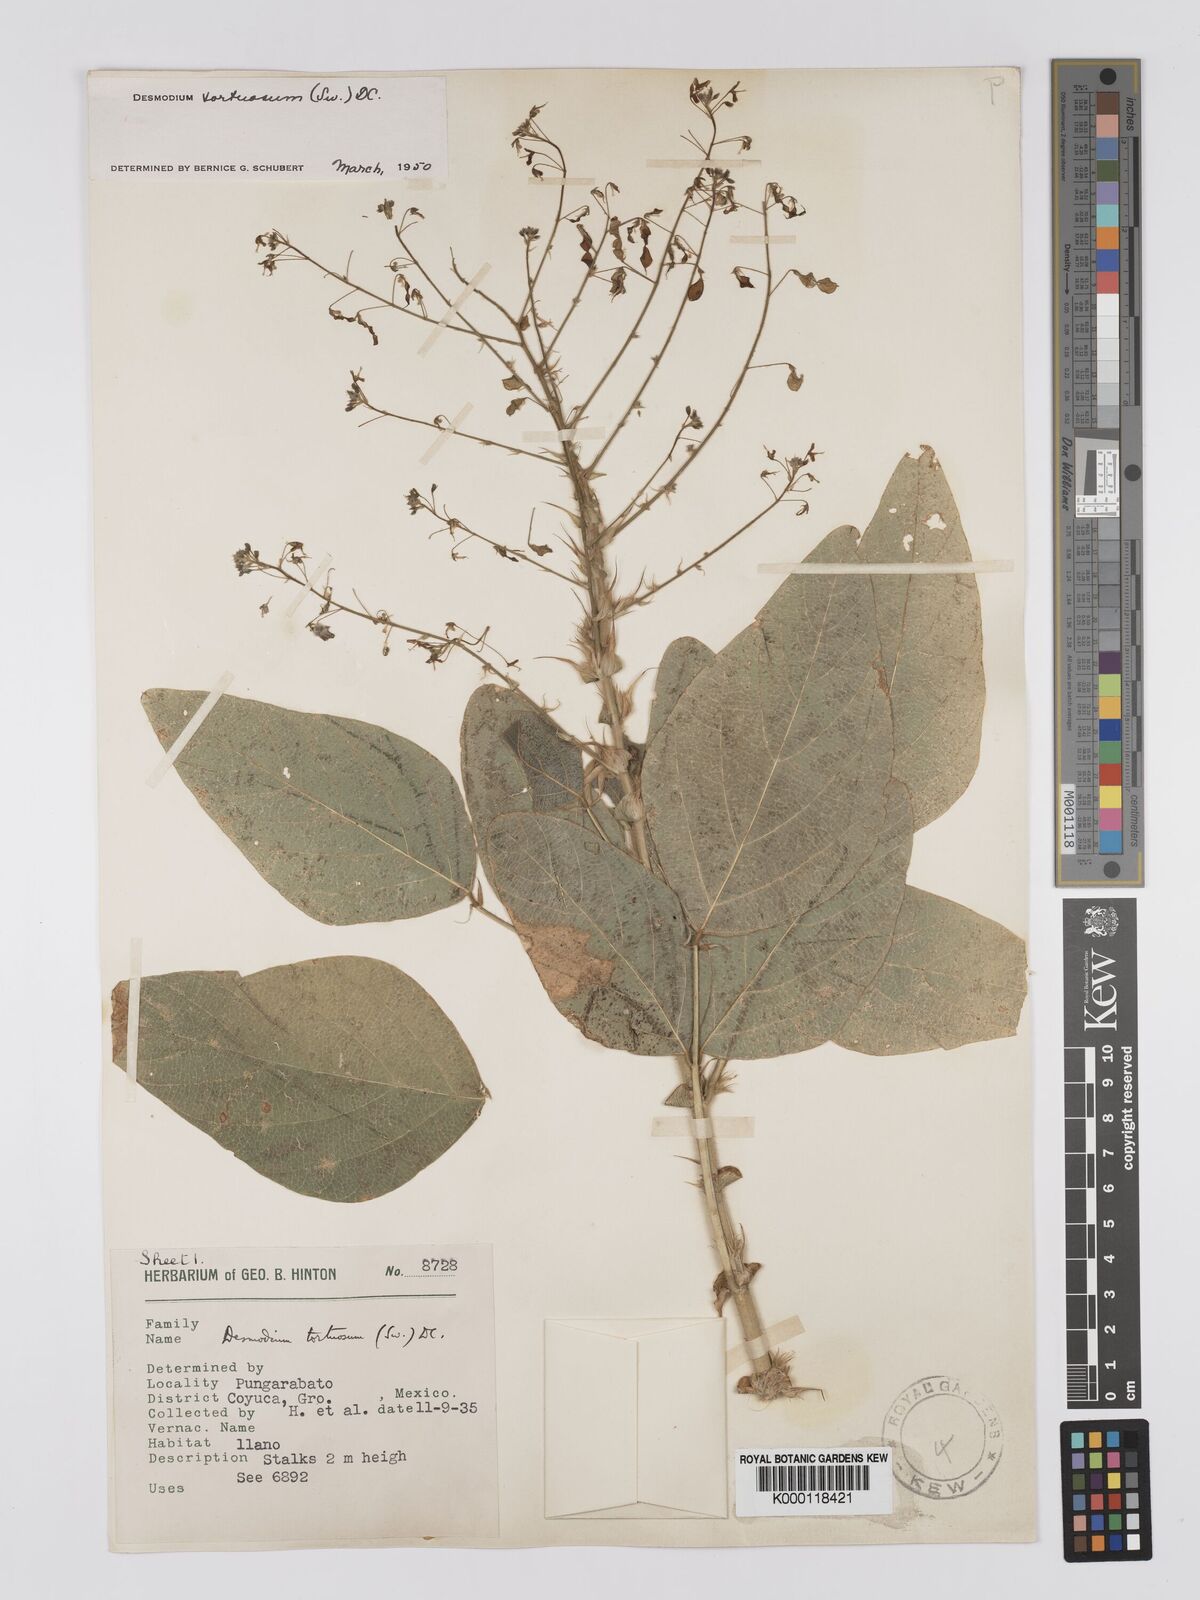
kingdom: Plantae
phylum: Tracheophyta
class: Magnoliopsida
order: Fabales
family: Fabaceae
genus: Desmodium
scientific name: Desmodium tortuosum
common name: Dixie ticktrefoil
